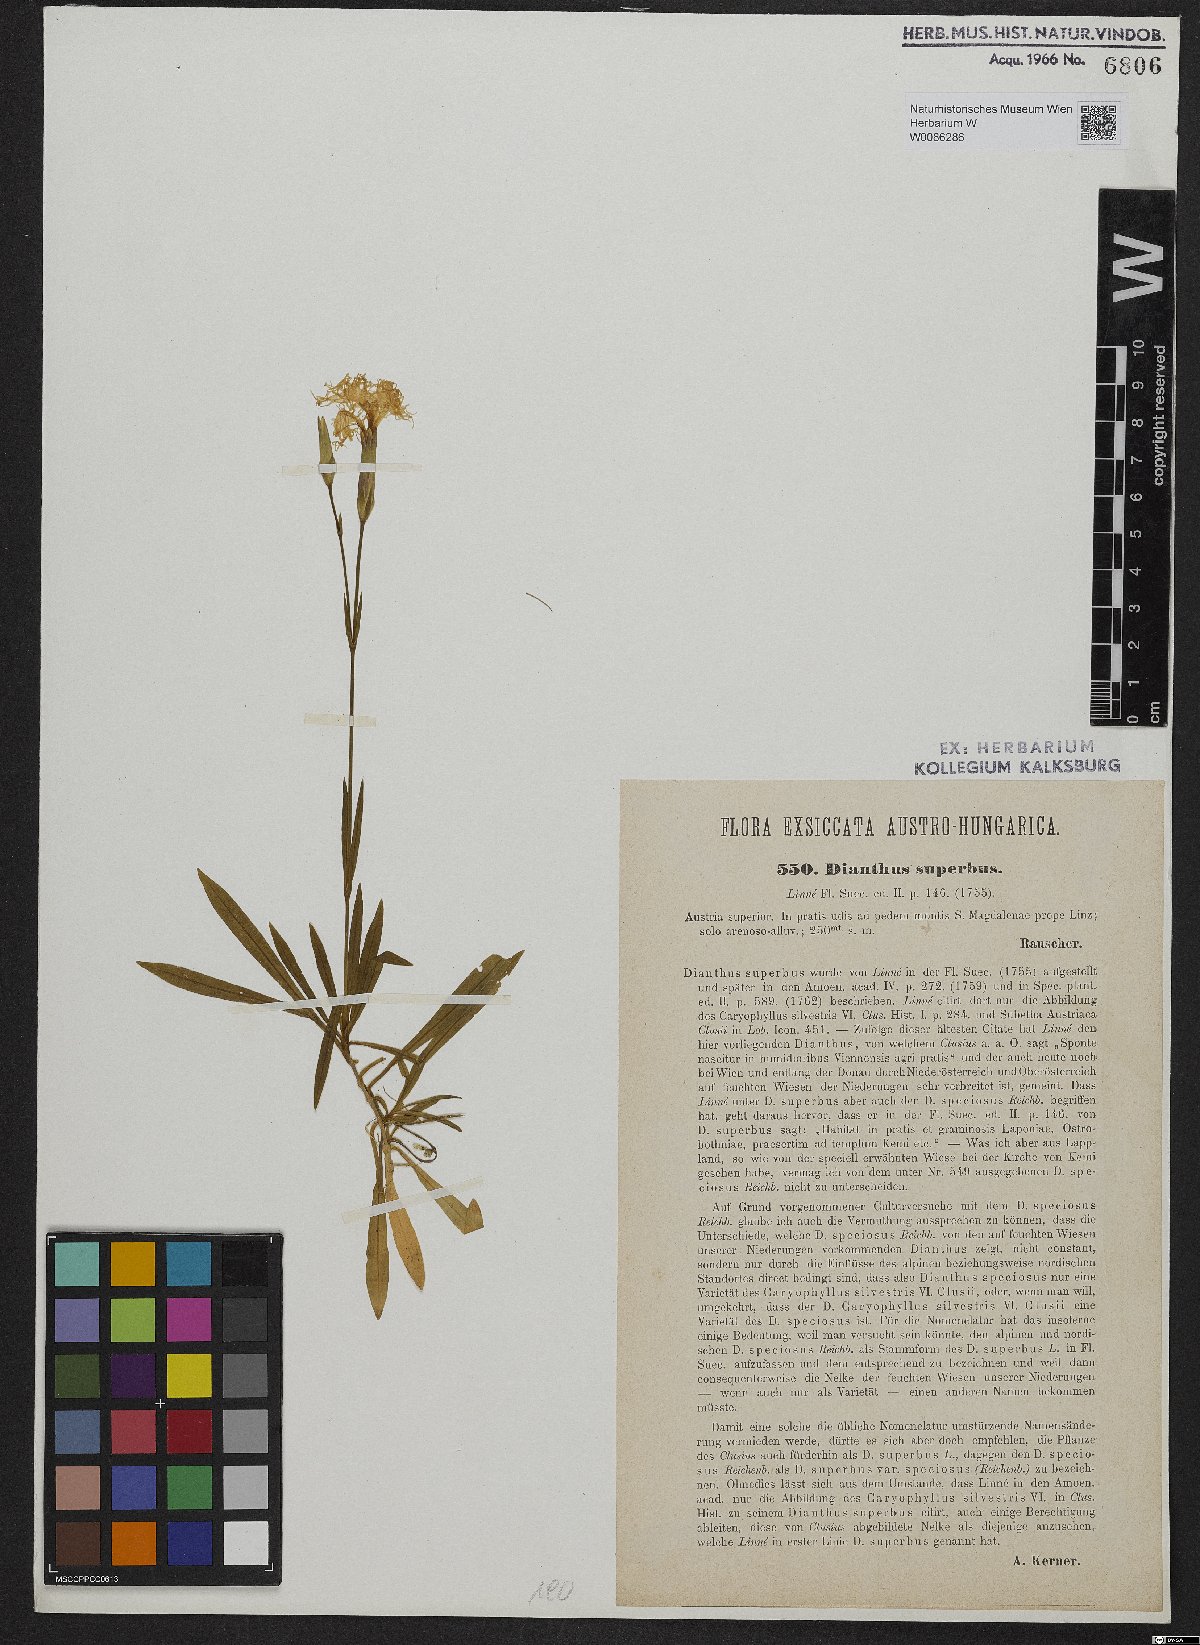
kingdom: Plantae
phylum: Tracheophyta
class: Magnoliopsida
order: Caryophyllales
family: Caryophyllaceae
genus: Dianthus
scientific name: Dianthus superbus
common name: Fringed pink
